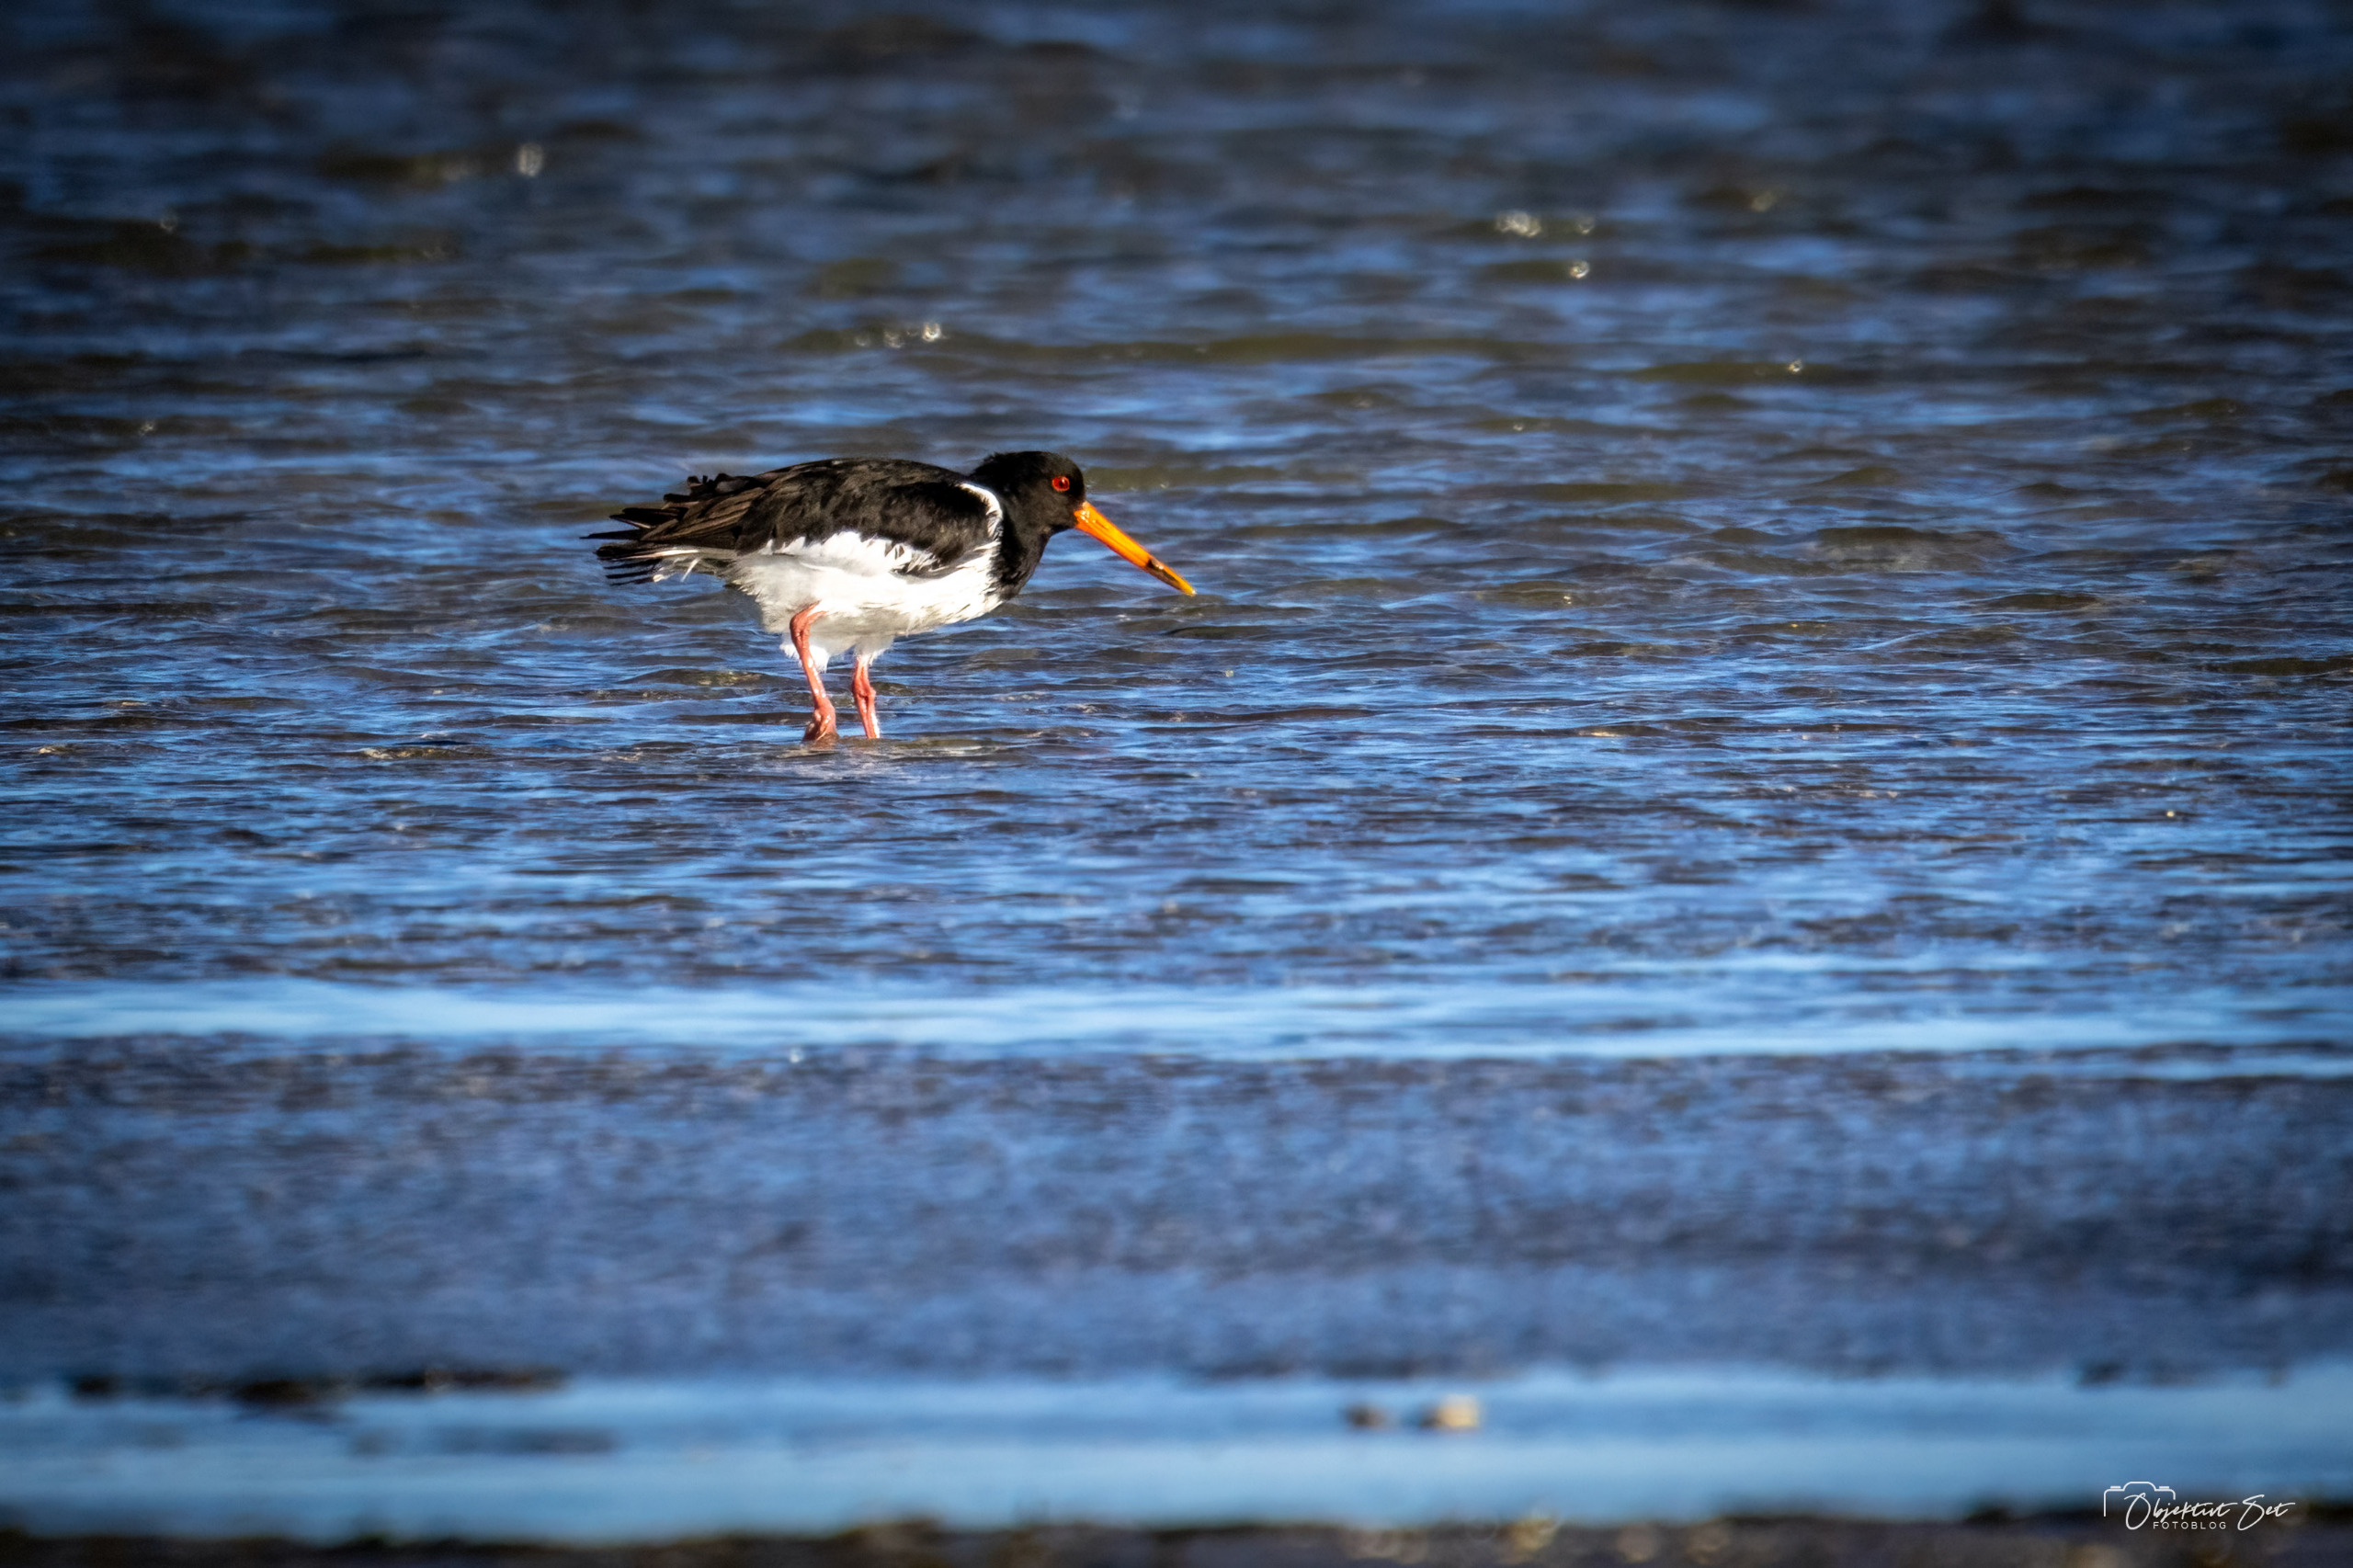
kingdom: Animalia
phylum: Chordata
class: Aves
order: Charadriiformes
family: Haematopodidae
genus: Haematopus
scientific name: Haematopus ostralegus
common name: Strandskade
